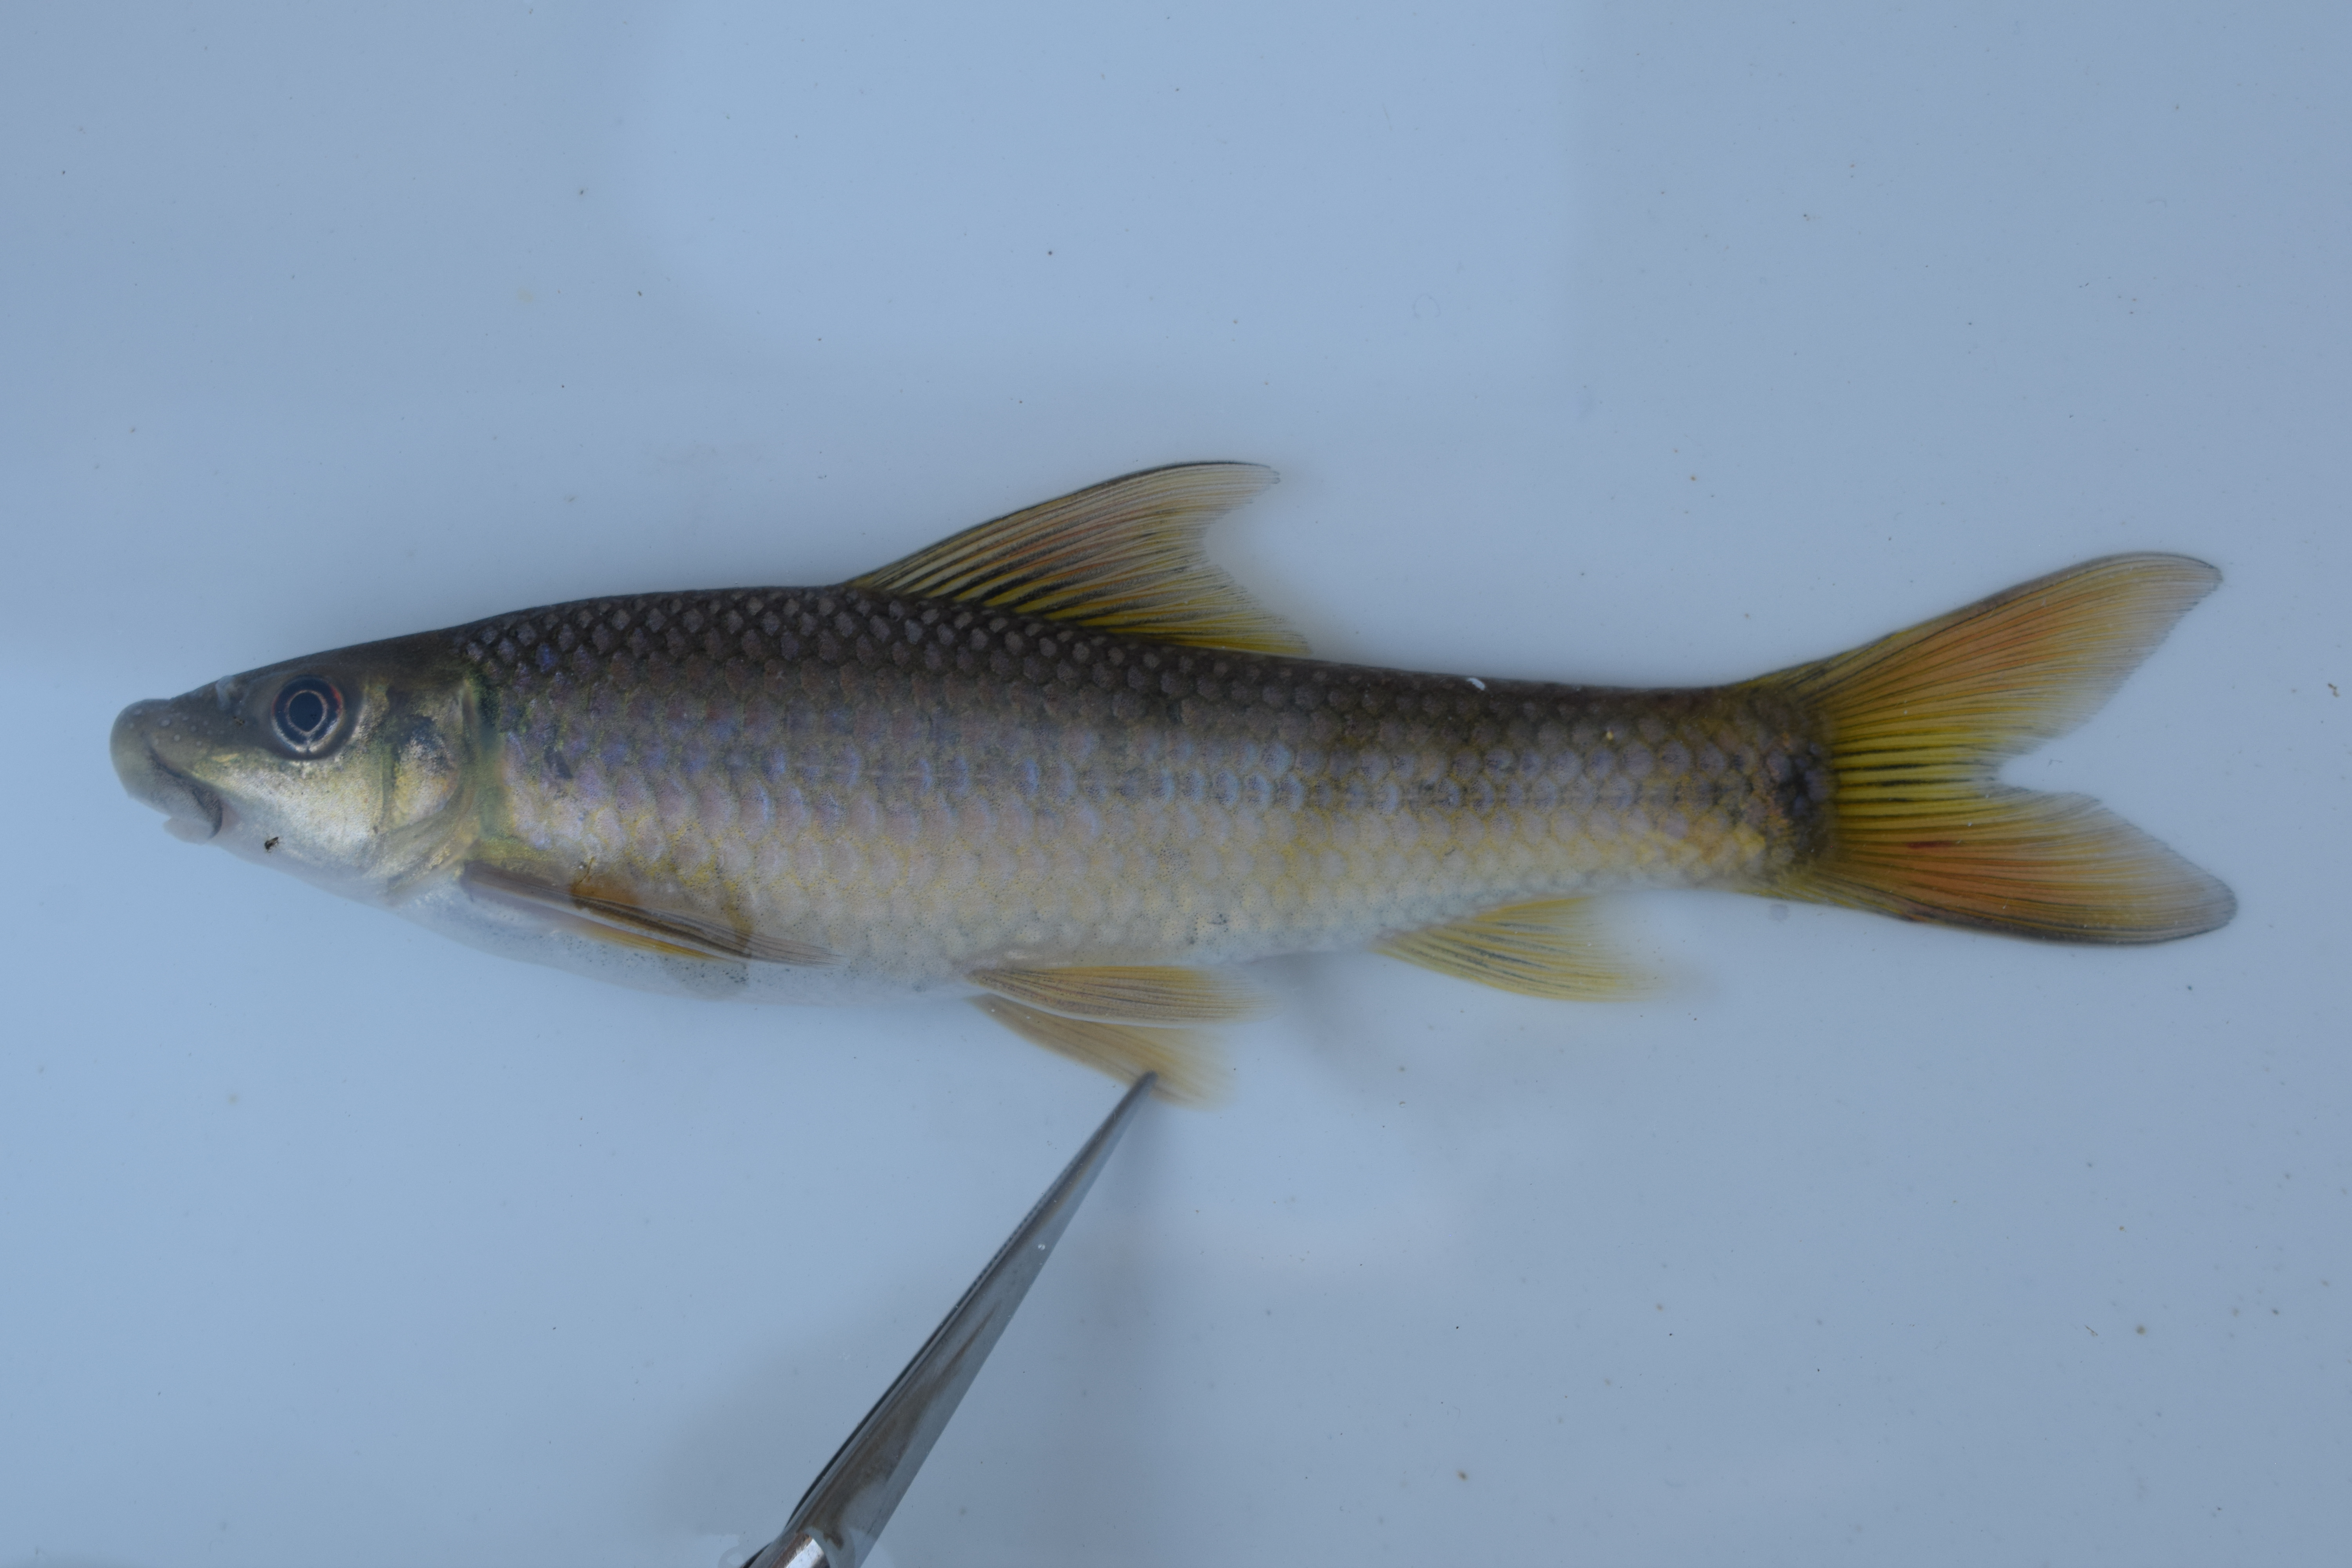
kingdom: Animalia
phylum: Chordata
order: Cypriniformes
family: Cyprinidae
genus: Labeo
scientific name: Labeo cylindricus
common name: Redeye labeo
